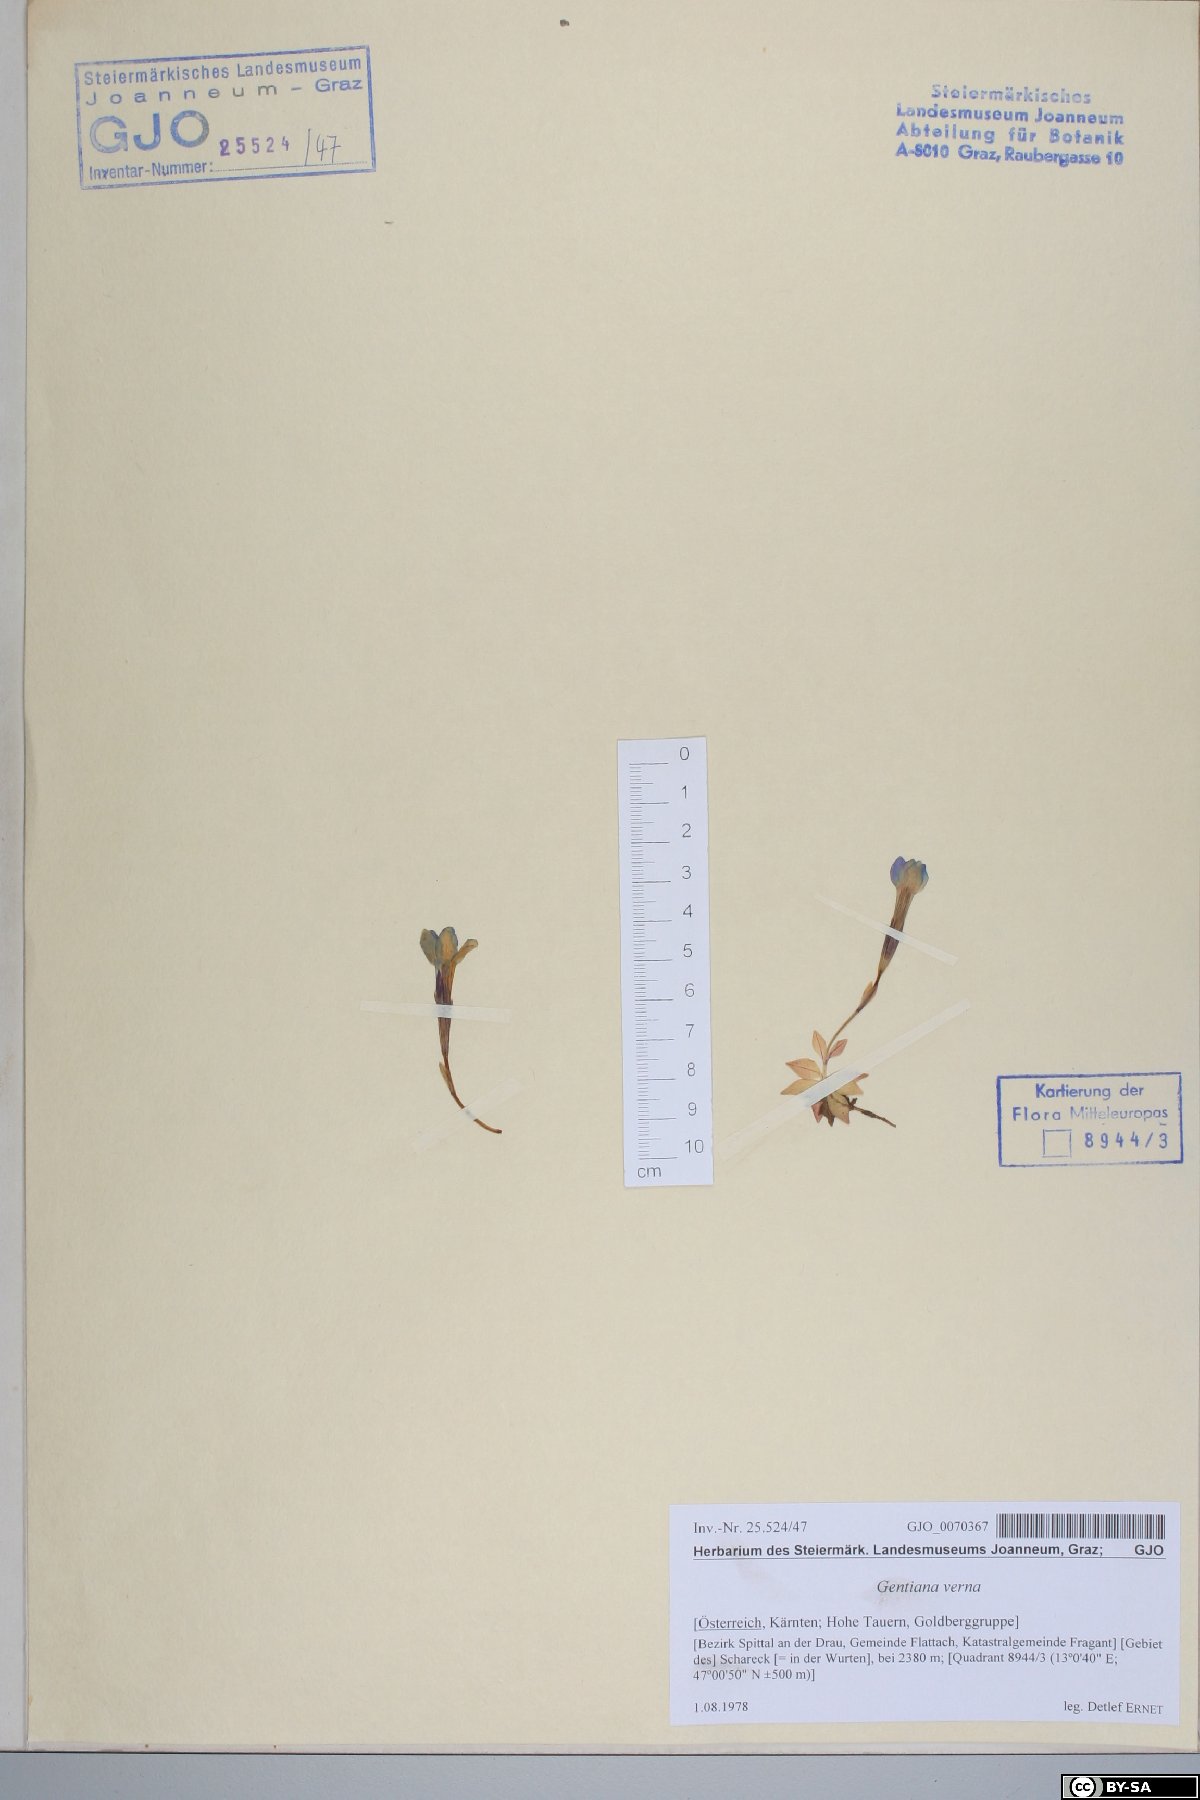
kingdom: Plantae
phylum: Tracheophyta
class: Magnoliopsida
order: Gentianales
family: Gentianaceae
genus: Gentiana
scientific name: Gentiana verna
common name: Spring gentian
